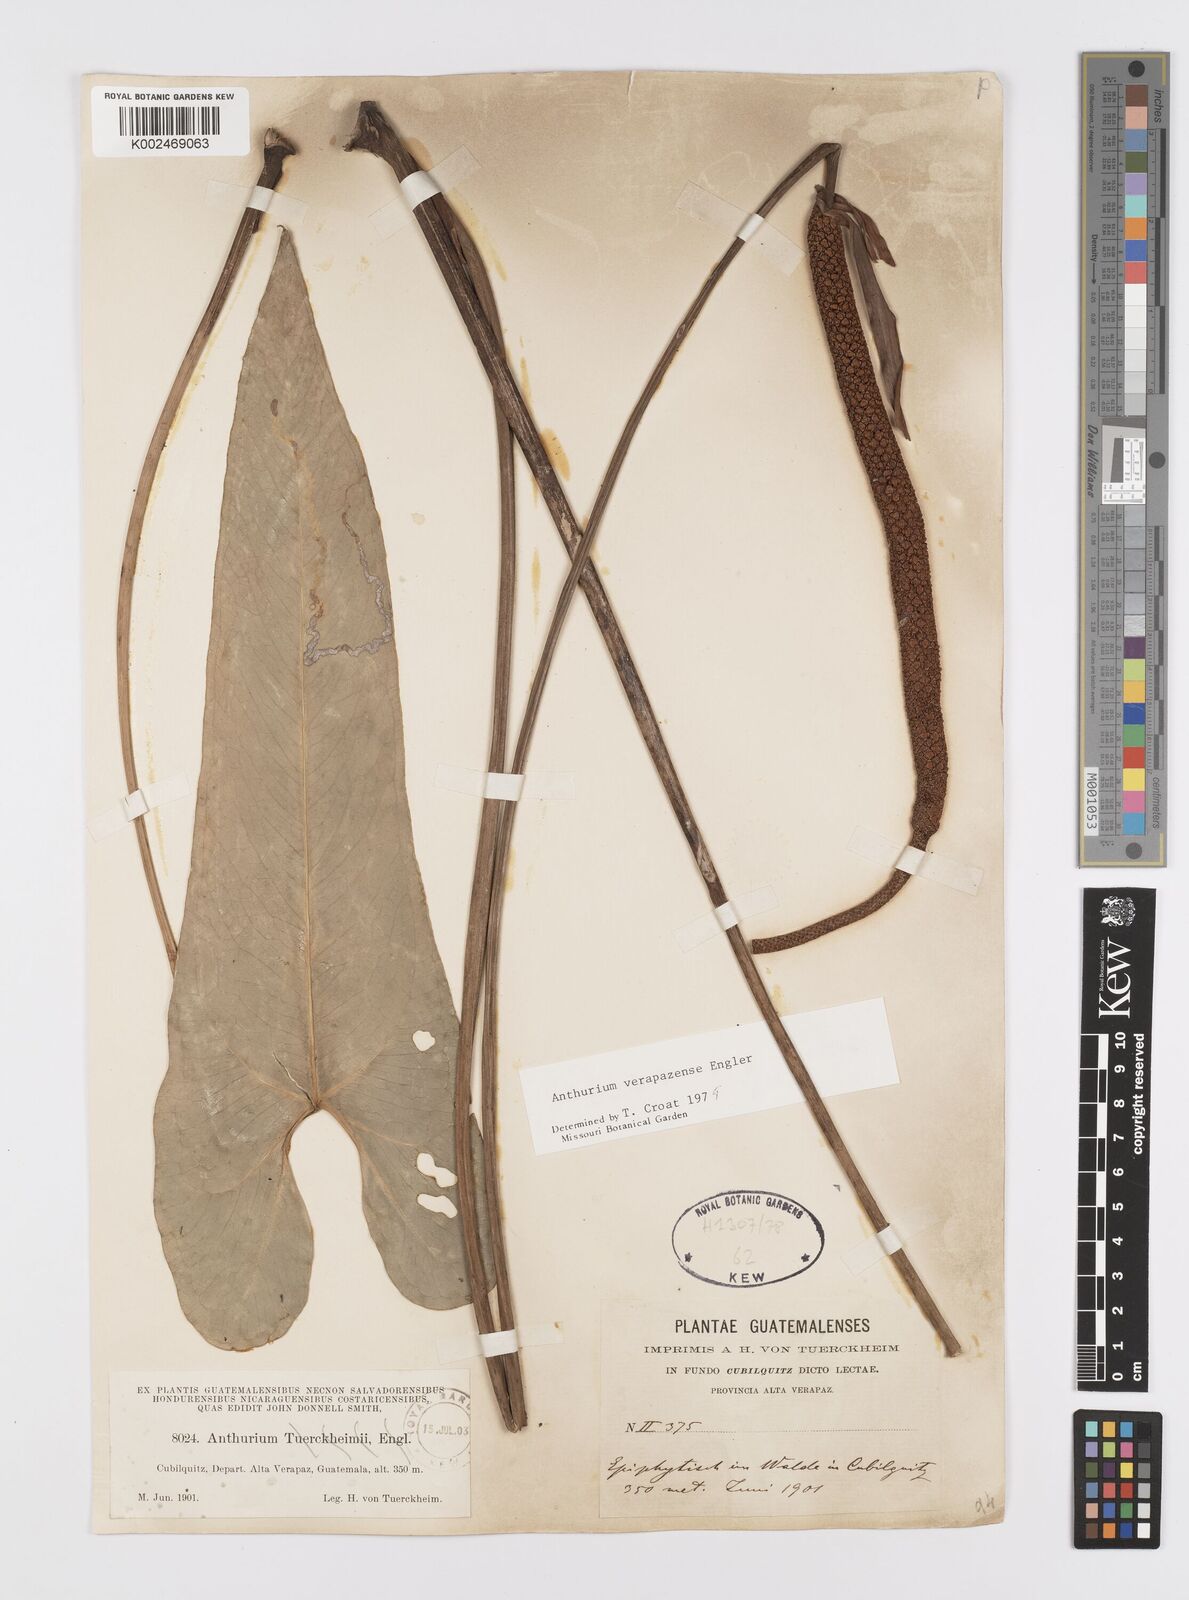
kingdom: Plantae
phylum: Tracheophyta
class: Liliopsida
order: Alismatales
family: Araceae
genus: Anthurium
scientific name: Anthurium verapazense
